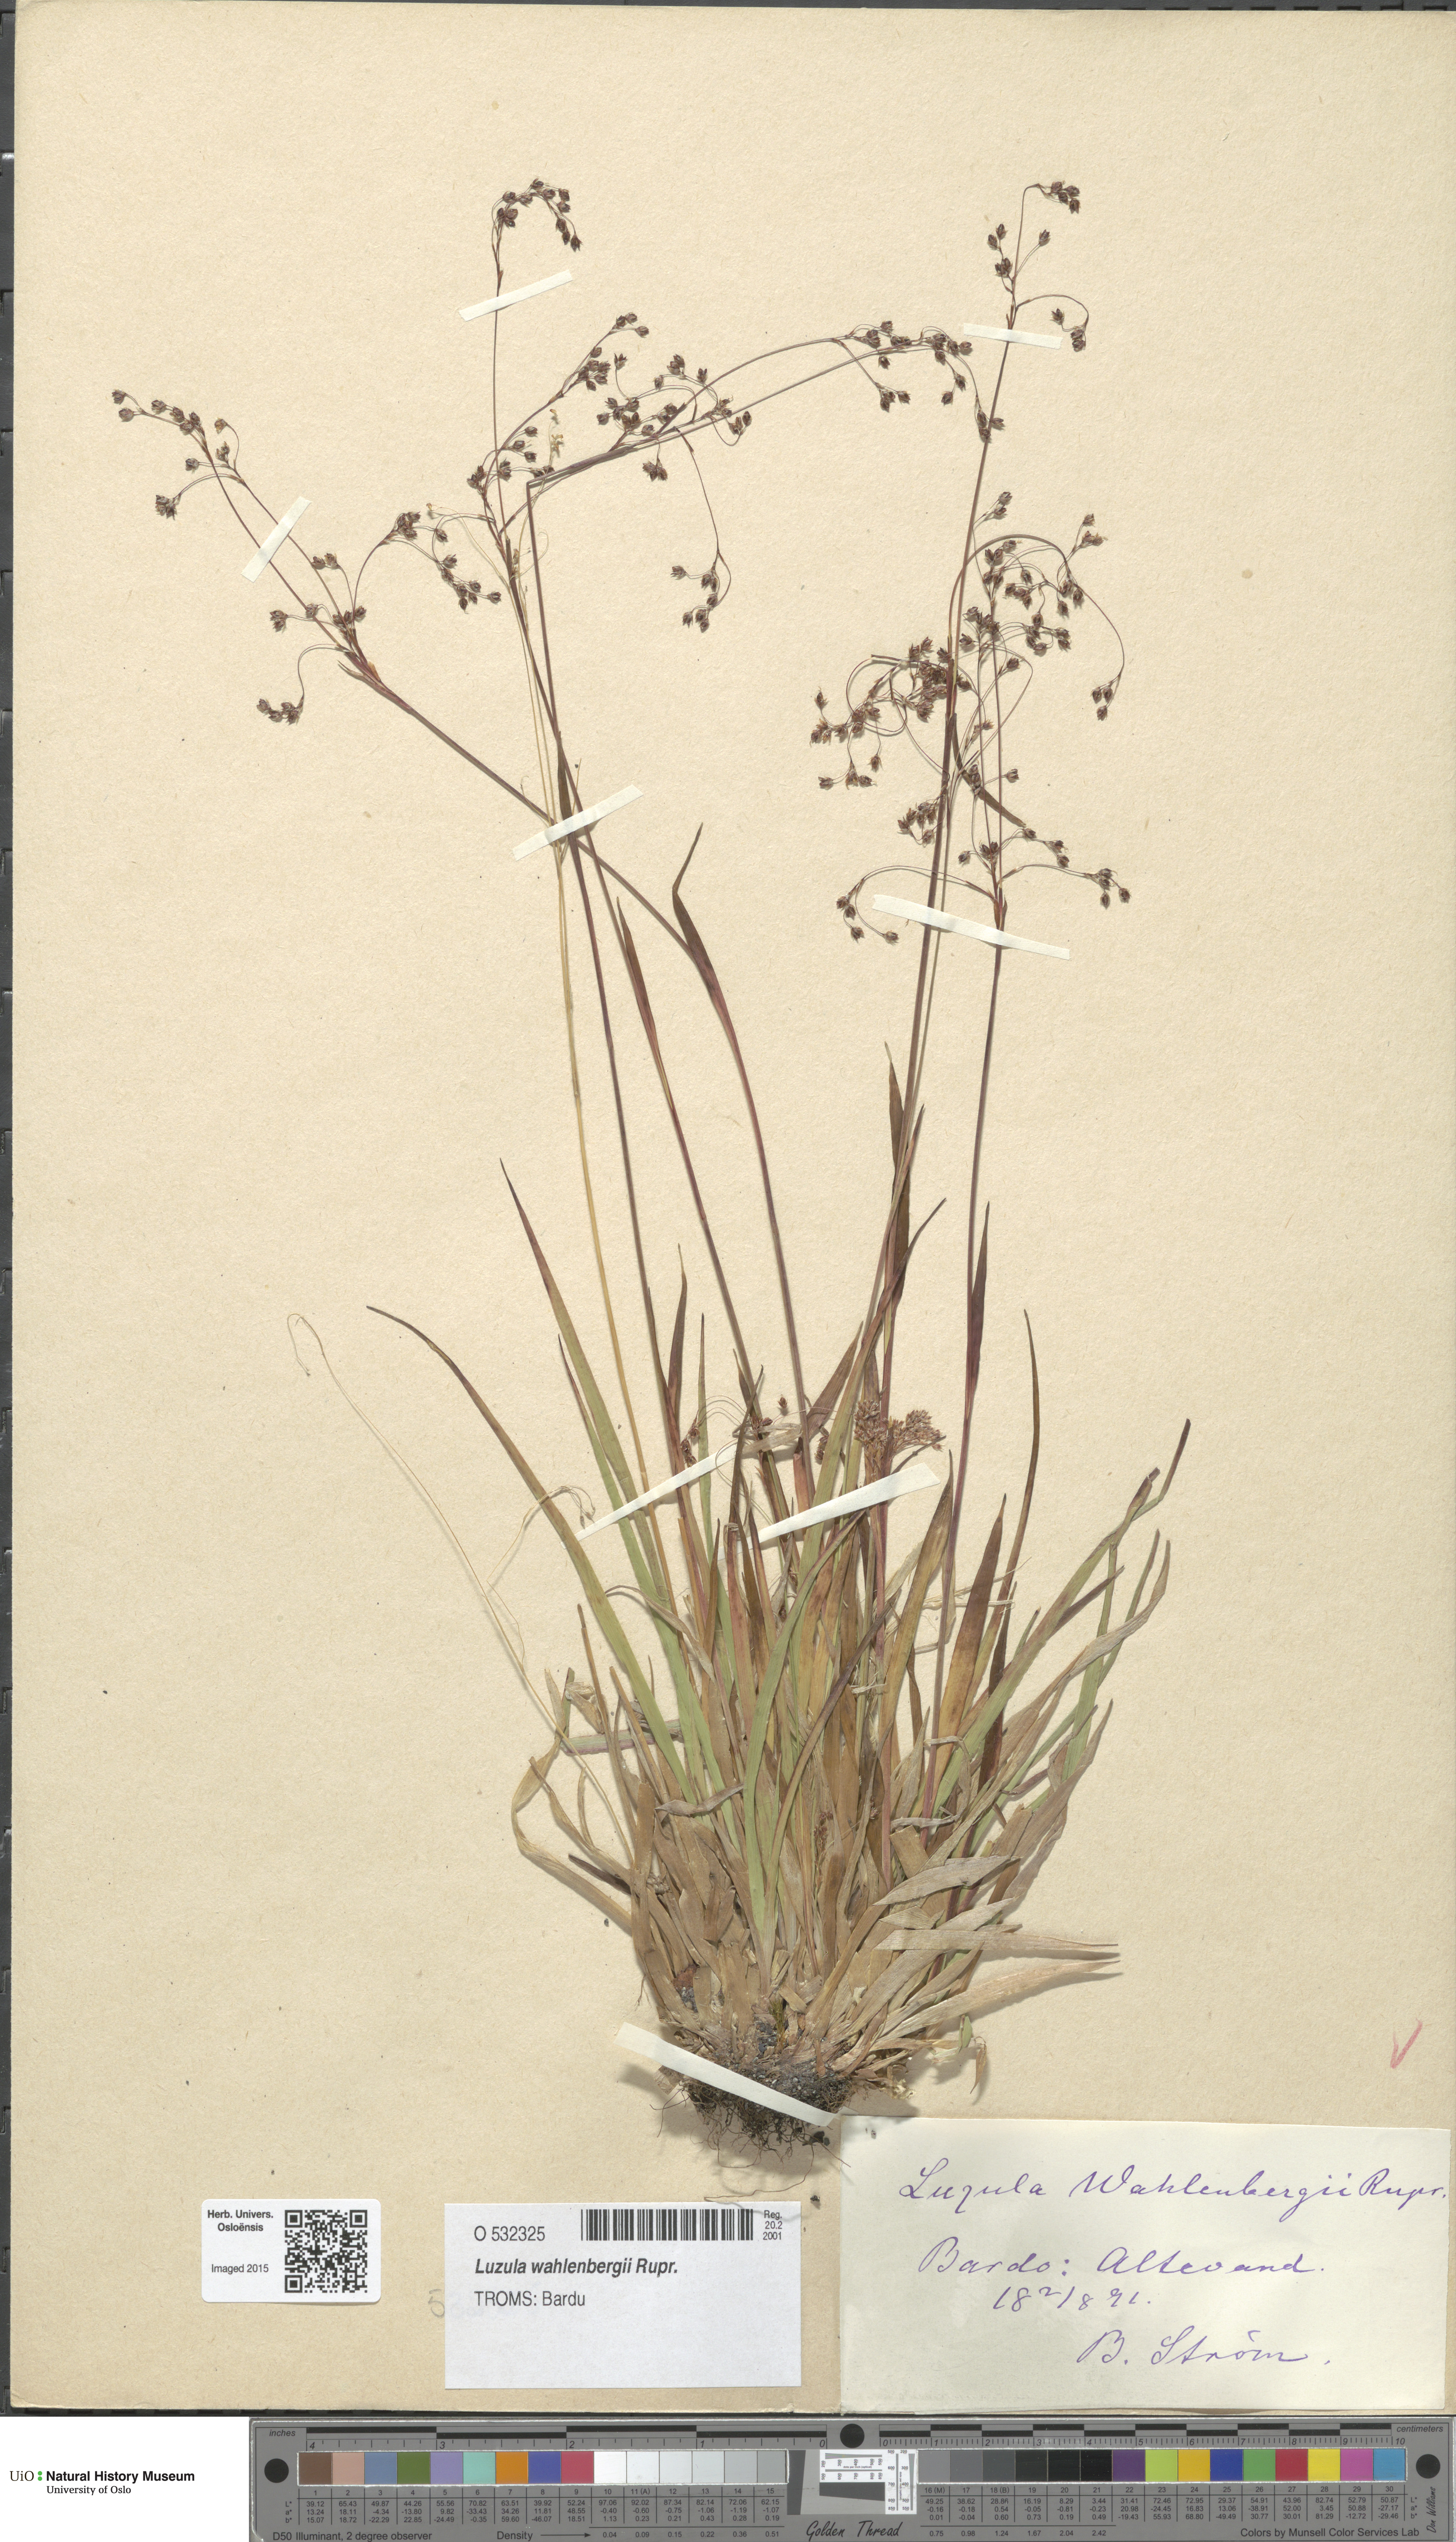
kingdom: Plantae
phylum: Tracheophyta
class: Liliopsida
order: Poales
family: Juncaceae
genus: Luzula
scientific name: Luzula wahlenbergii
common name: Wahlenberg's wood-rush
